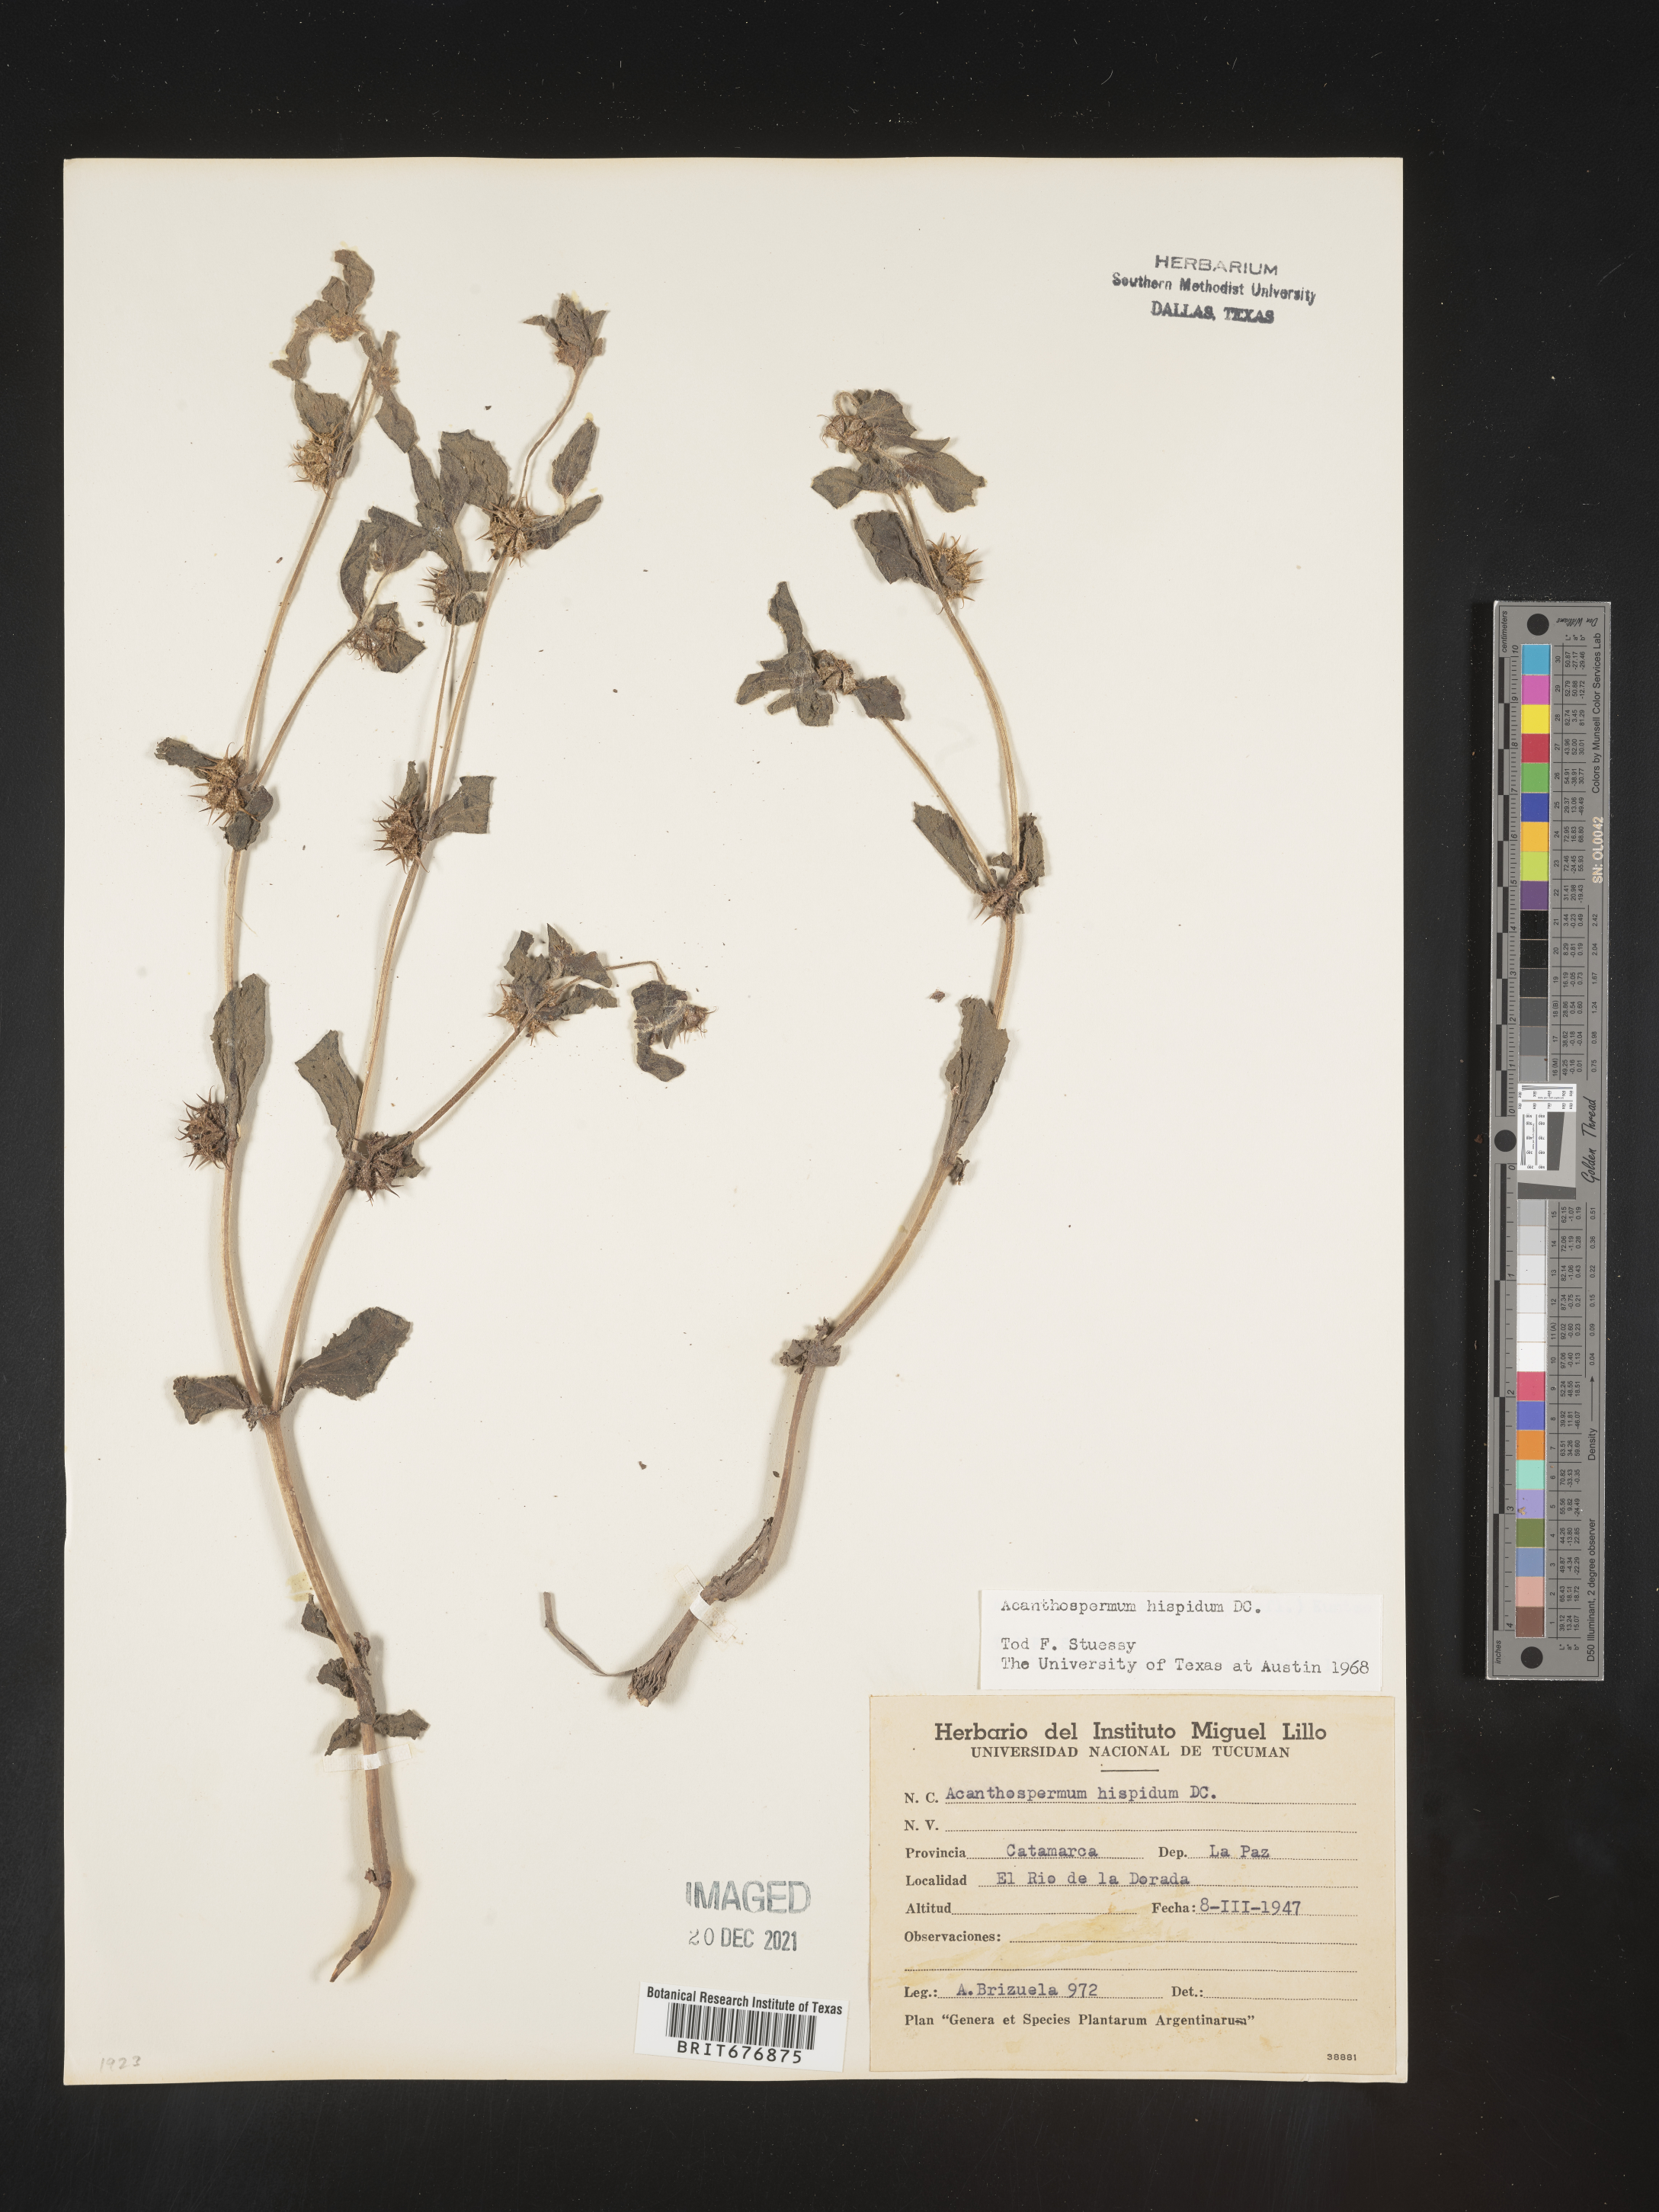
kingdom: Plantae
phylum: Tracheophyta
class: Magnoliopsida
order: Asterales
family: Asteraceae
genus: Acanthospermum
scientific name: Acanthospermum
